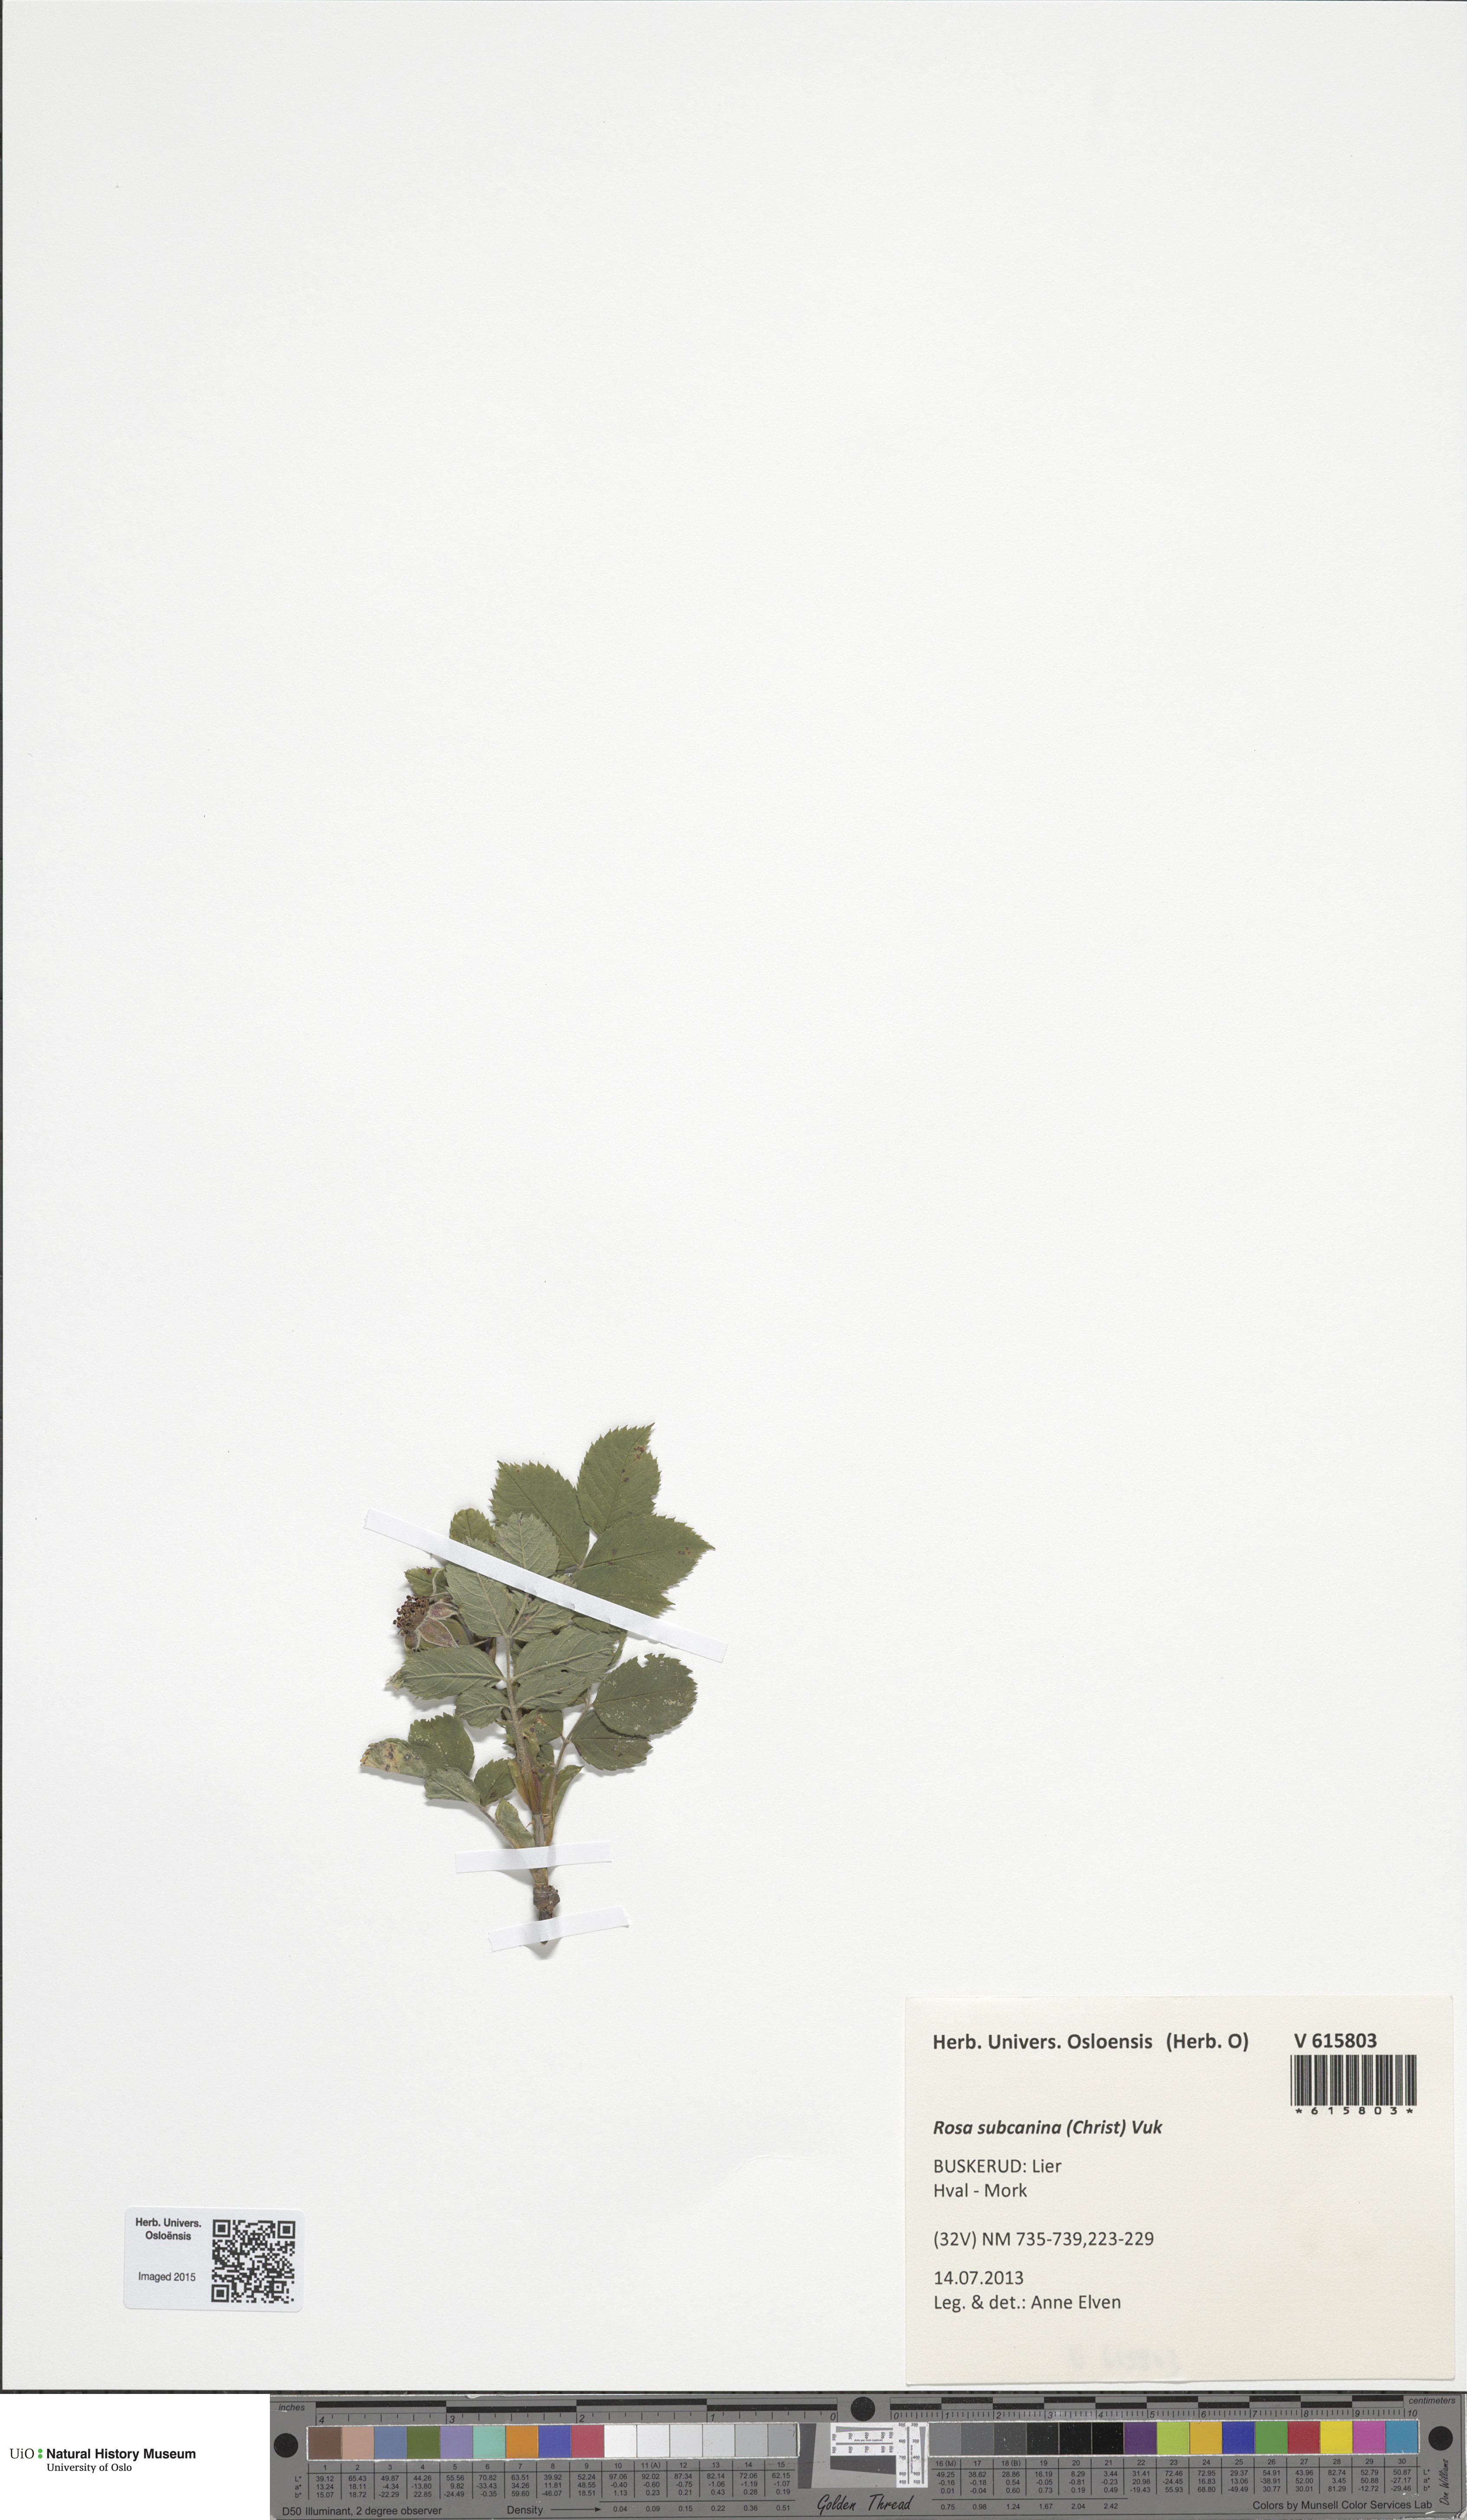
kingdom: Plantae
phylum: Tracheophyta
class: Magnoliopsida
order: Rosales
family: Rosaceae
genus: Rosa
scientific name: Rosa subcanina
